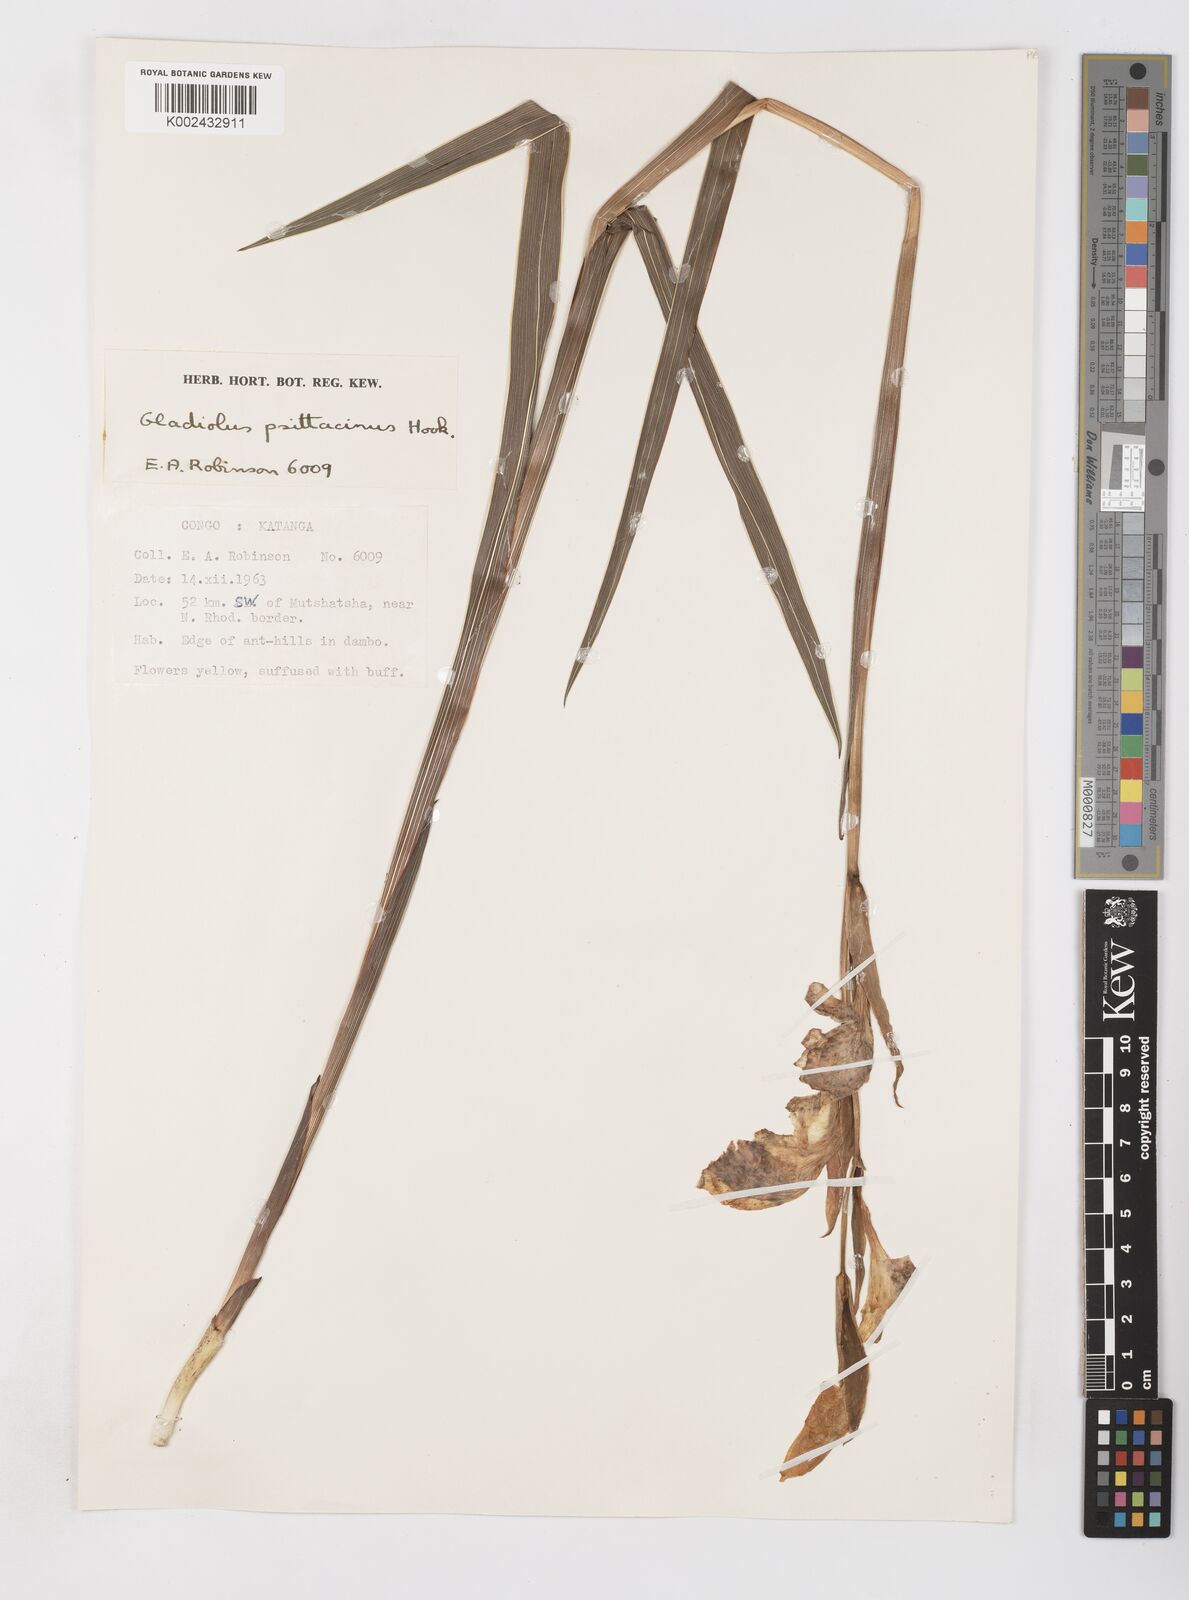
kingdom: Plantae
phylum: Tracheophyta
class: Liliopsida
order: Asparagales
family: Iridaceae
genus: Gladiolus
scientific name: Gladiolus dalenii
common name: Cornflag
